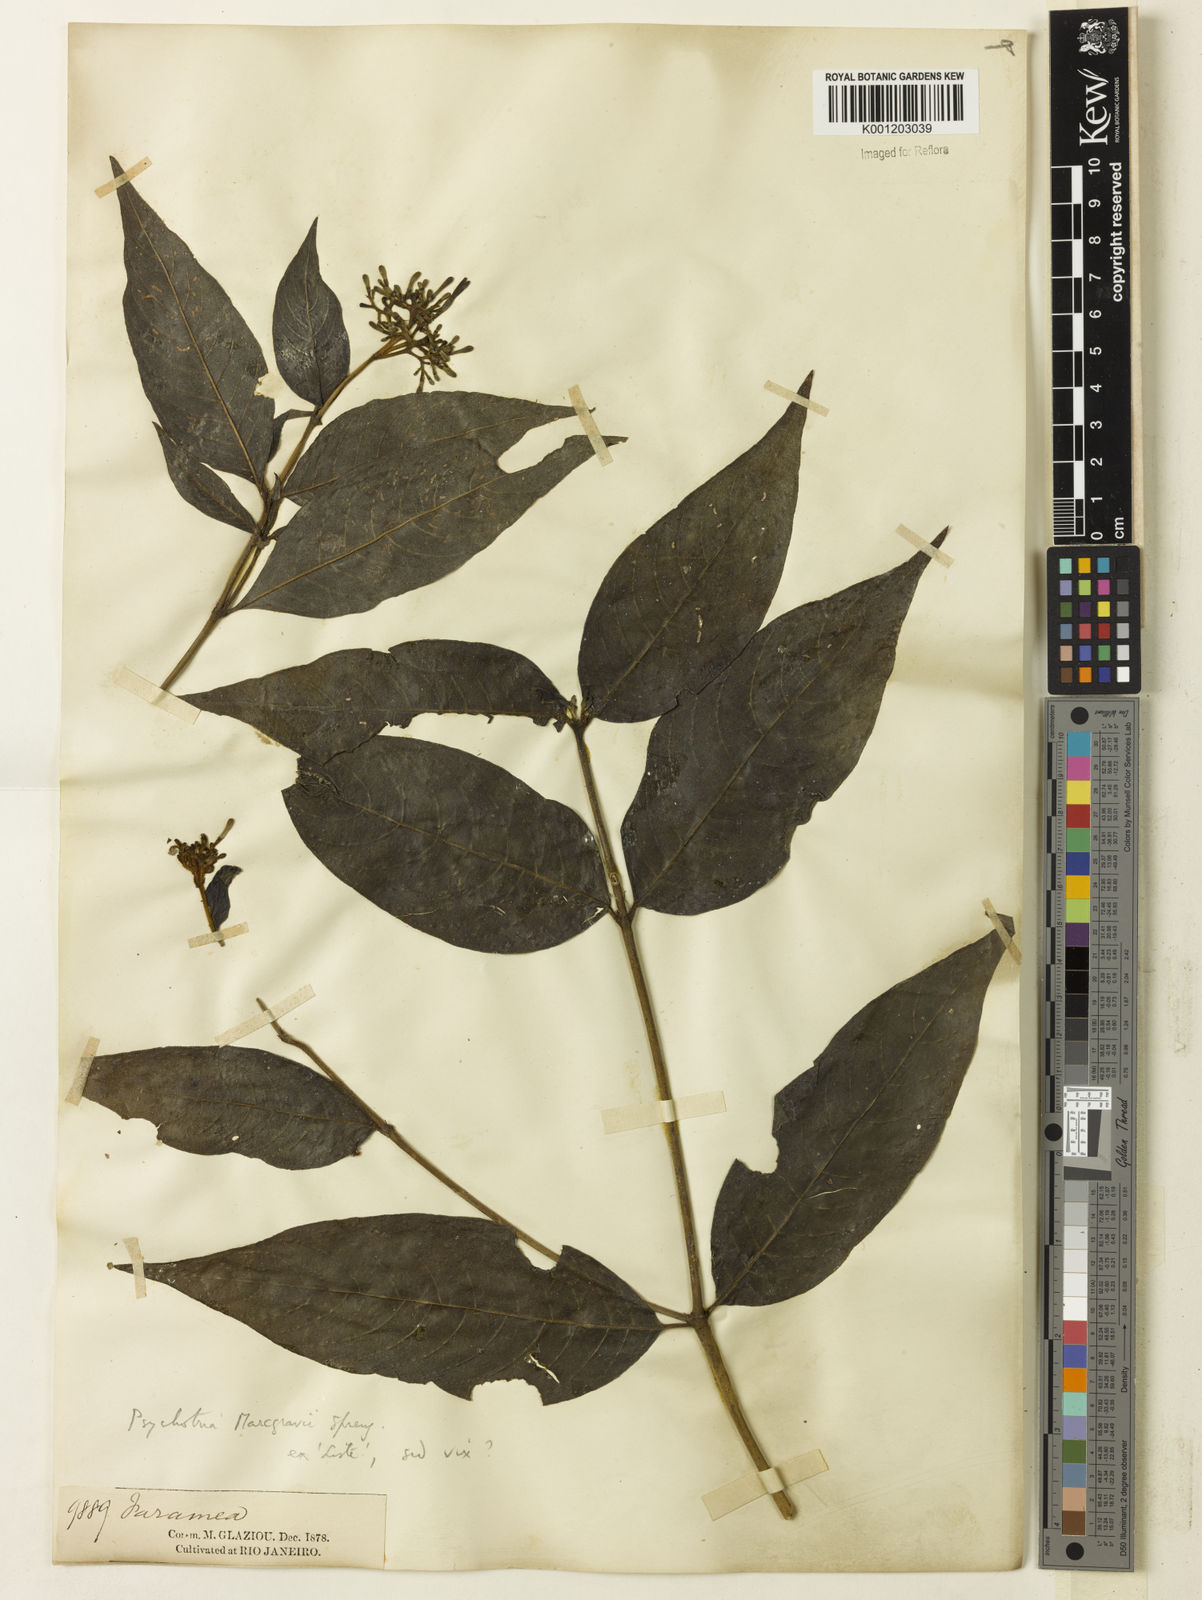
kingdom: Plantae
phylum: Tracheophyta
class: Magnoliopsida
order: Gentianales
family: Rubiaceae
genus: Palicourea
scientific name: Palicourea marcgravii
